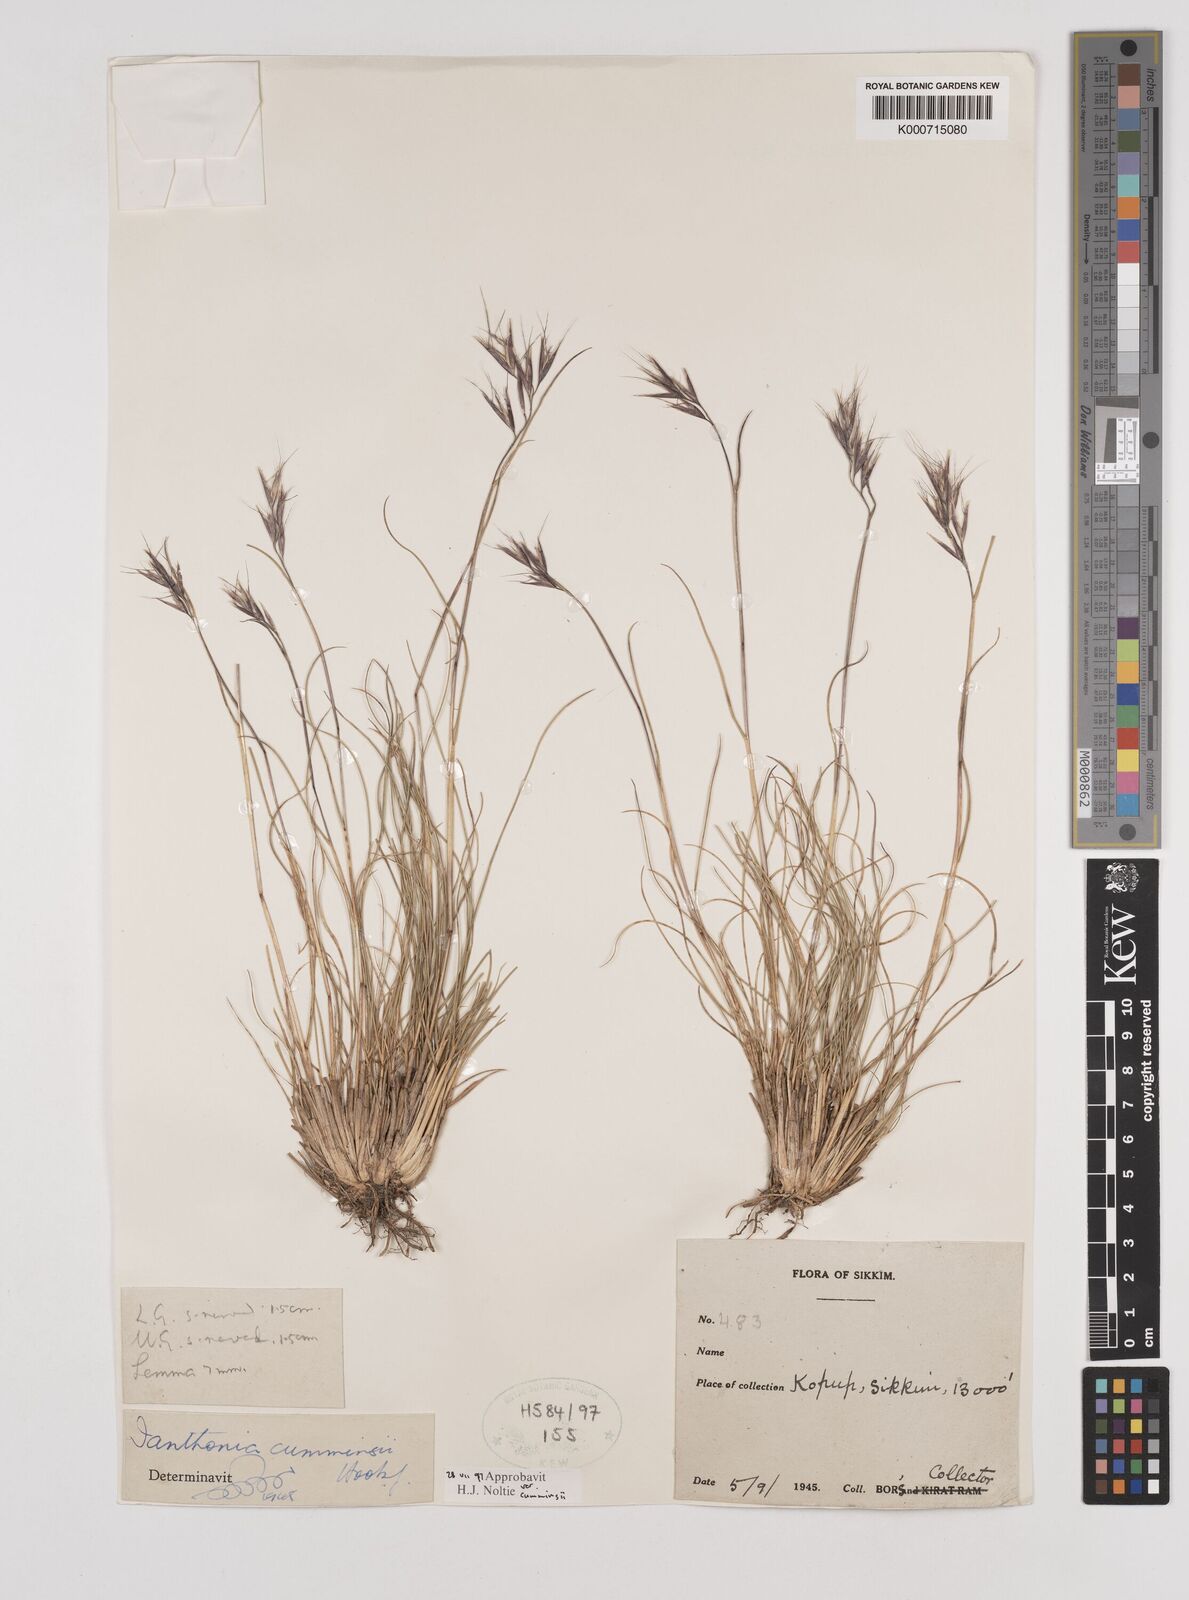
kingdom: Plantae
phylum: Tracheophyta
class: Liliopsida
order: Poales
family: Poaceae
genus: Rytidosperma
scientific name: Rytidosperma
